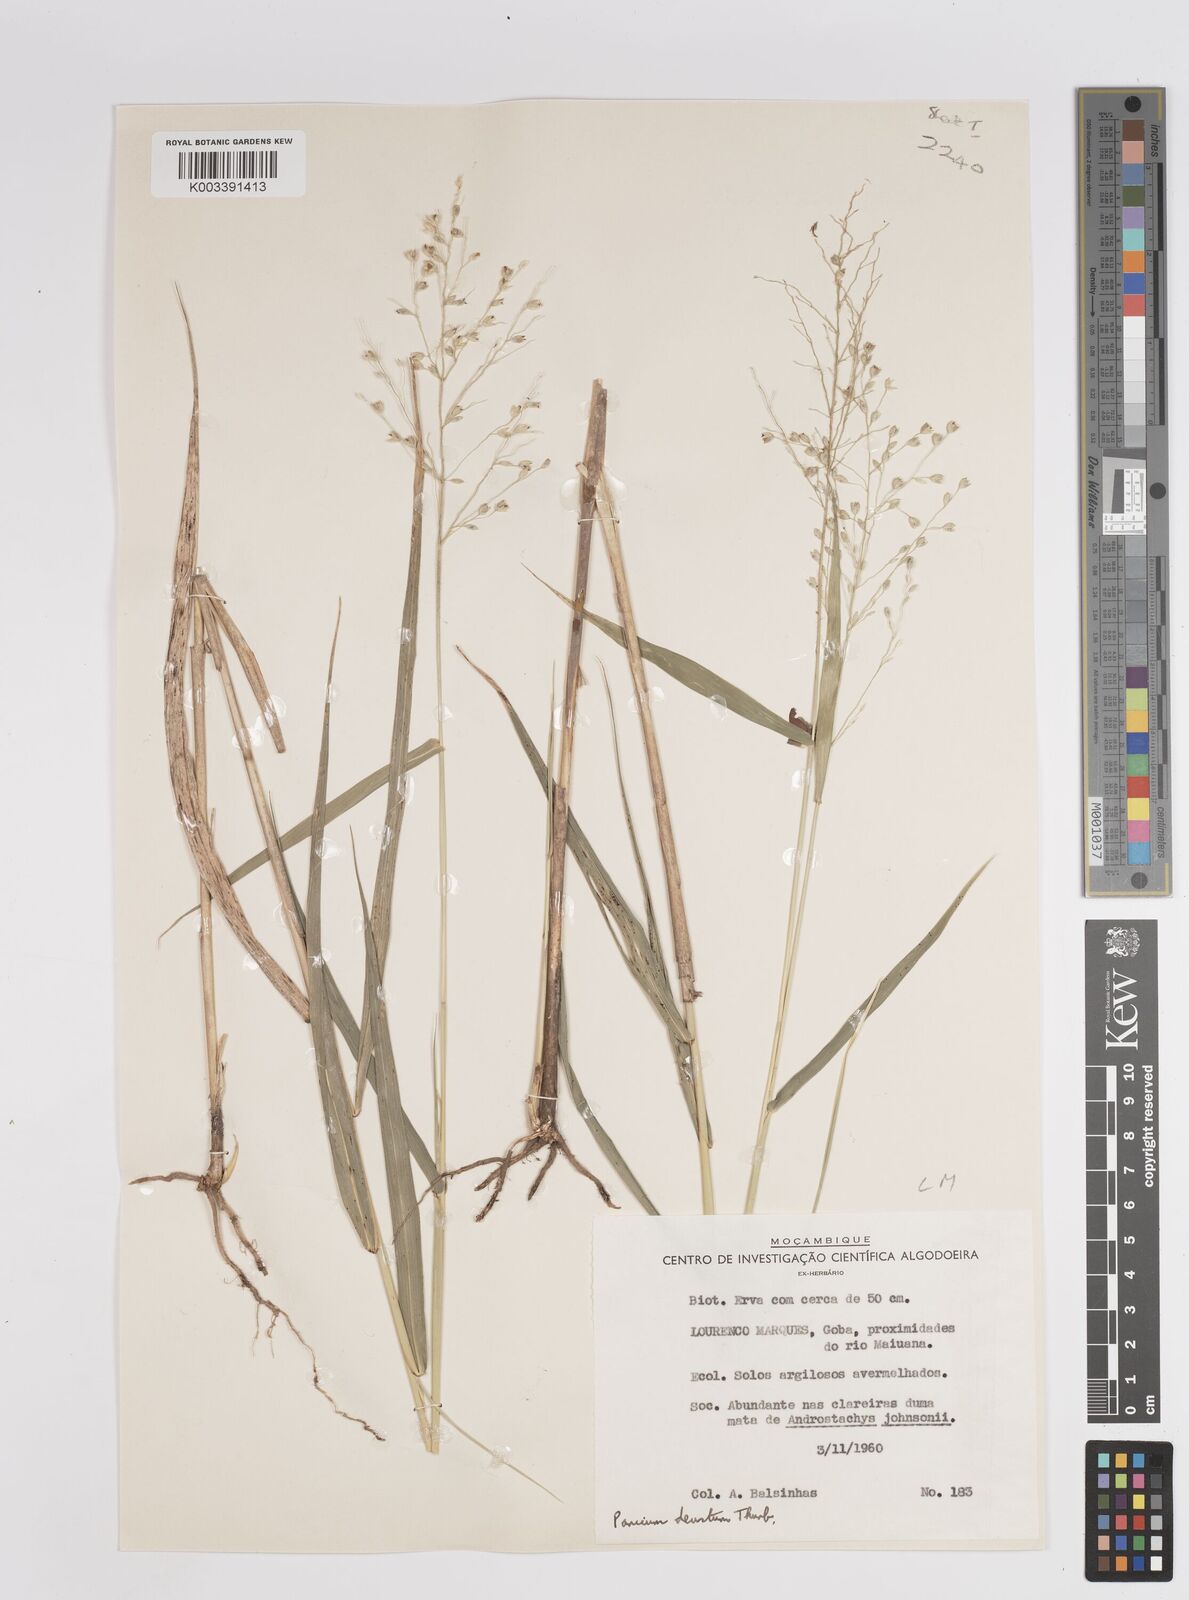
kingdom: Plantae
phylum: Tracheophyta
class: Liliopsida
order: Poales
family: Poaceae
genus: Panicum
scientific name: Panicum deustum
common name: Reed panicum
